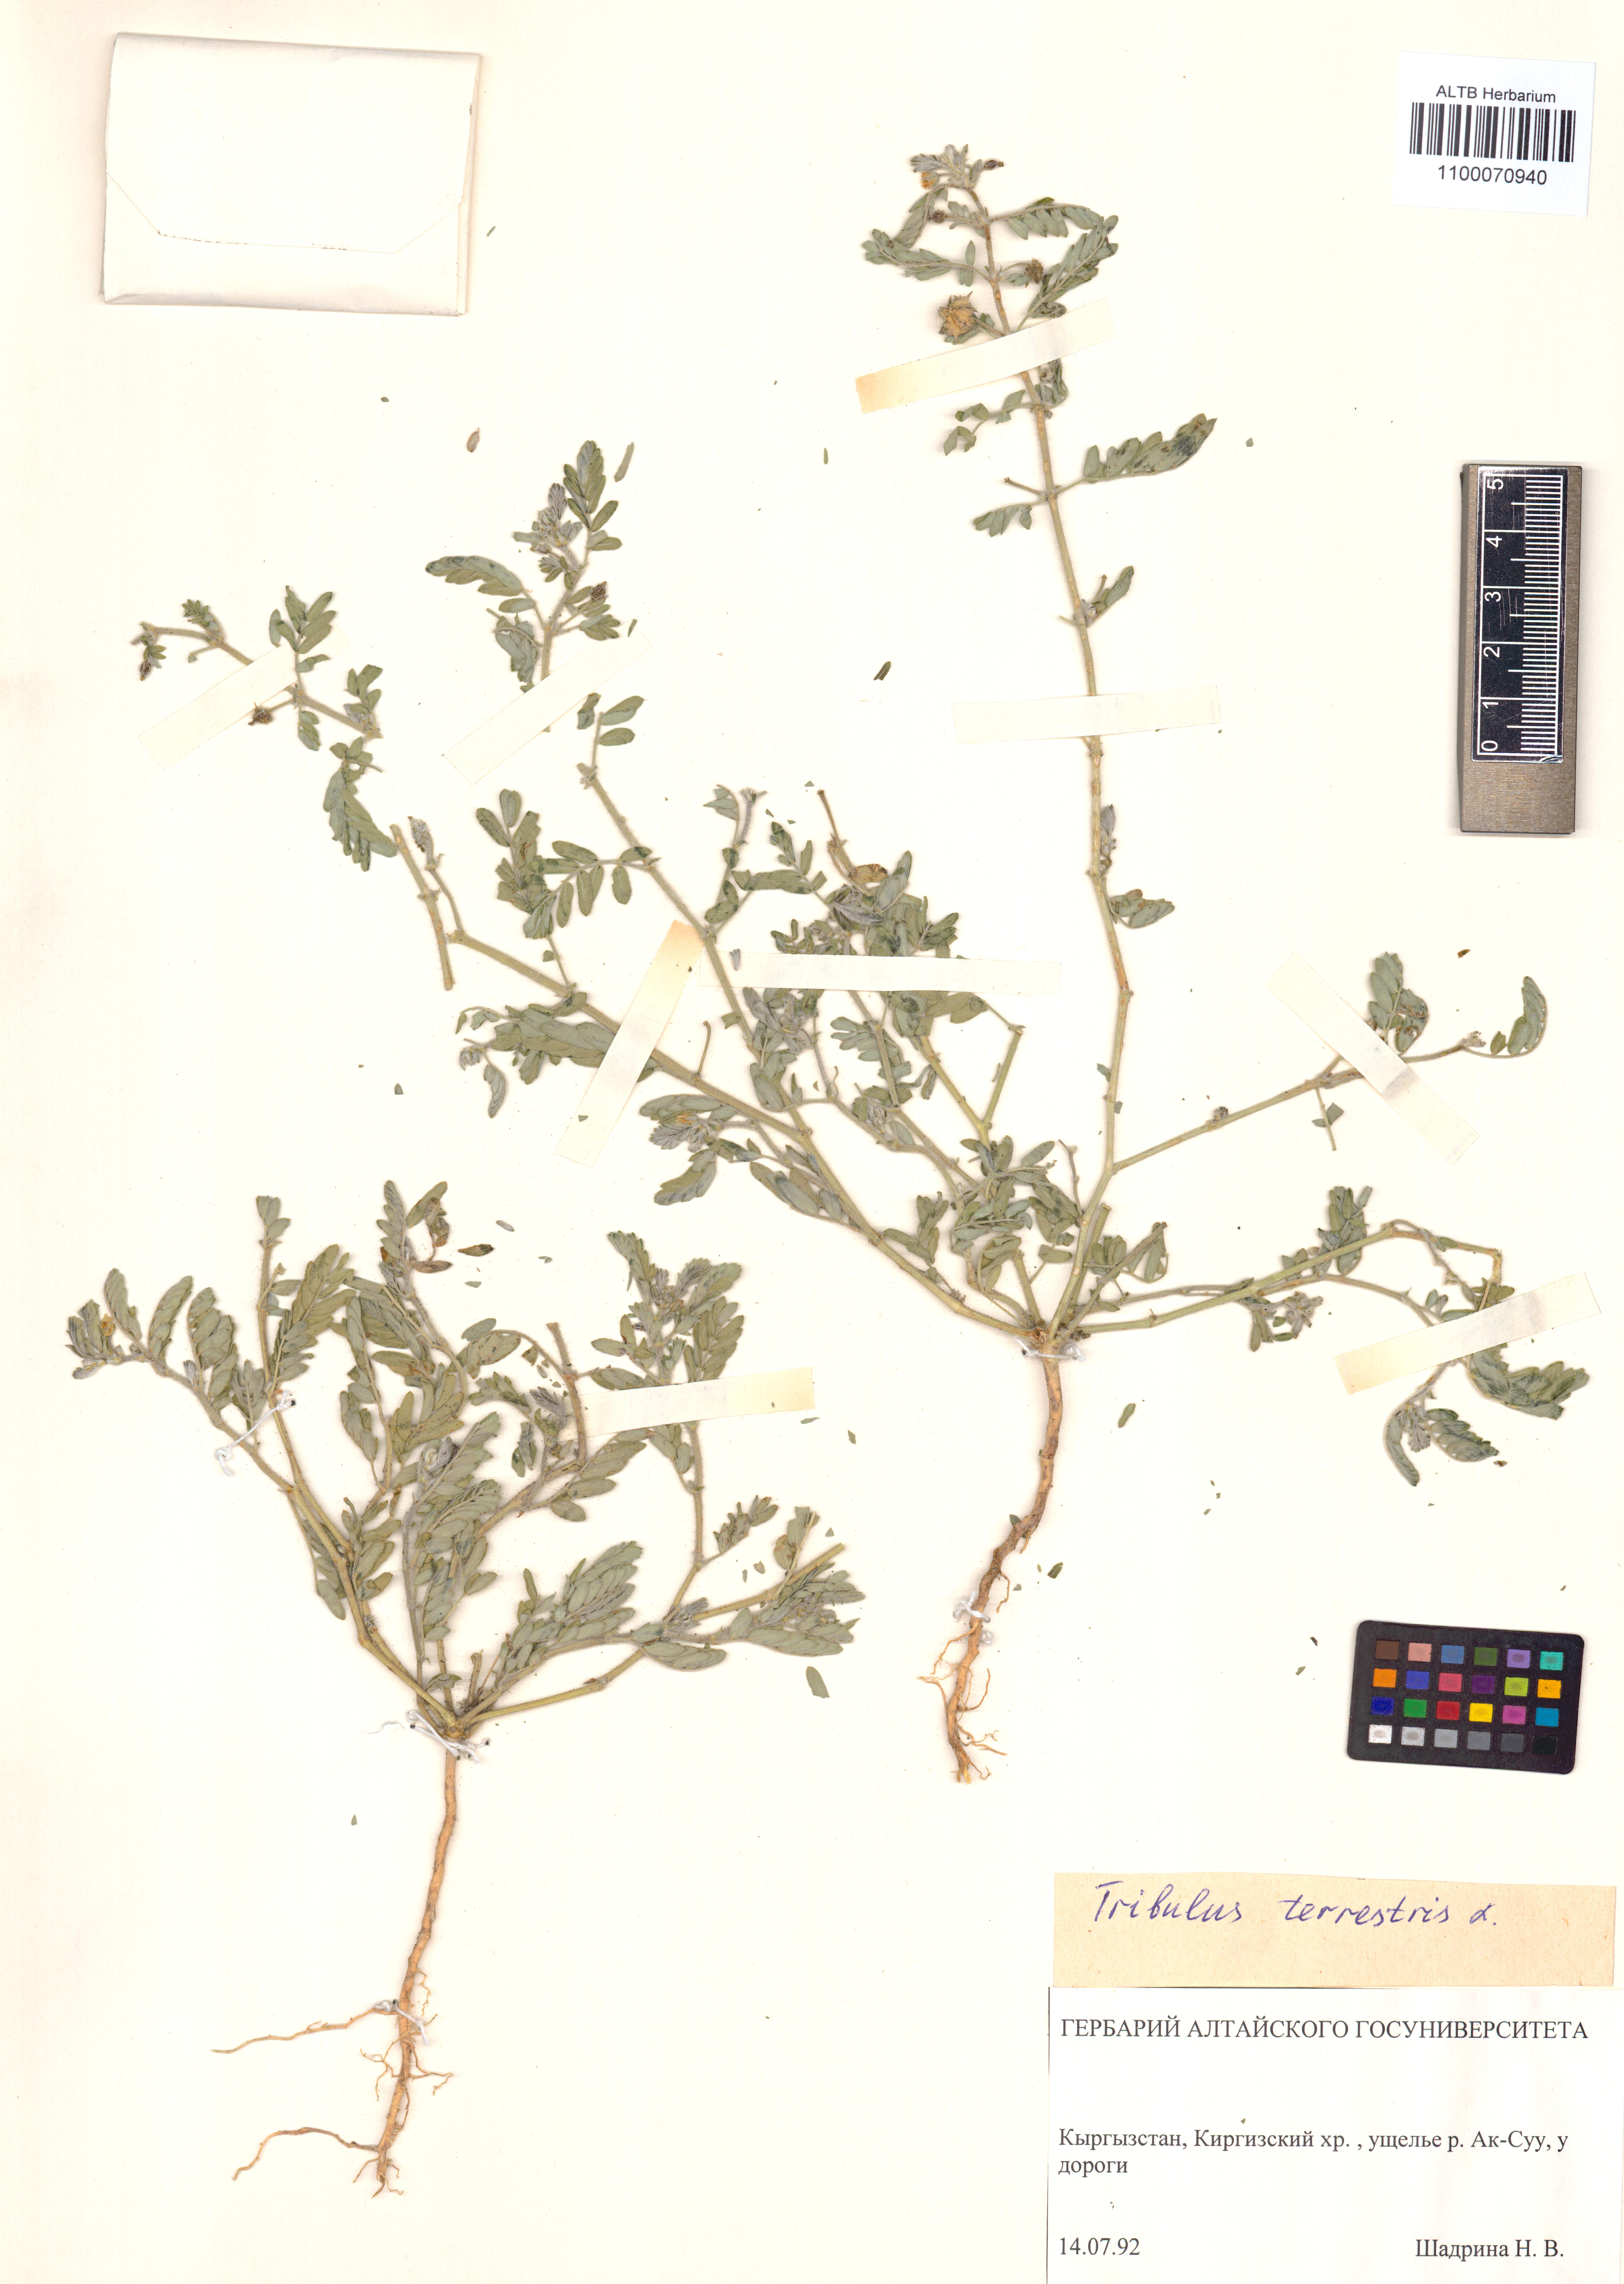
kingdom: Plantae
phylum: Tracheophyta
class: Magnoliopsida
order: Zygophyllales
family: Zygophyllaceae
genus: Tribulus
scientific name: Tribulus terrestris
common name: Puncturevine
